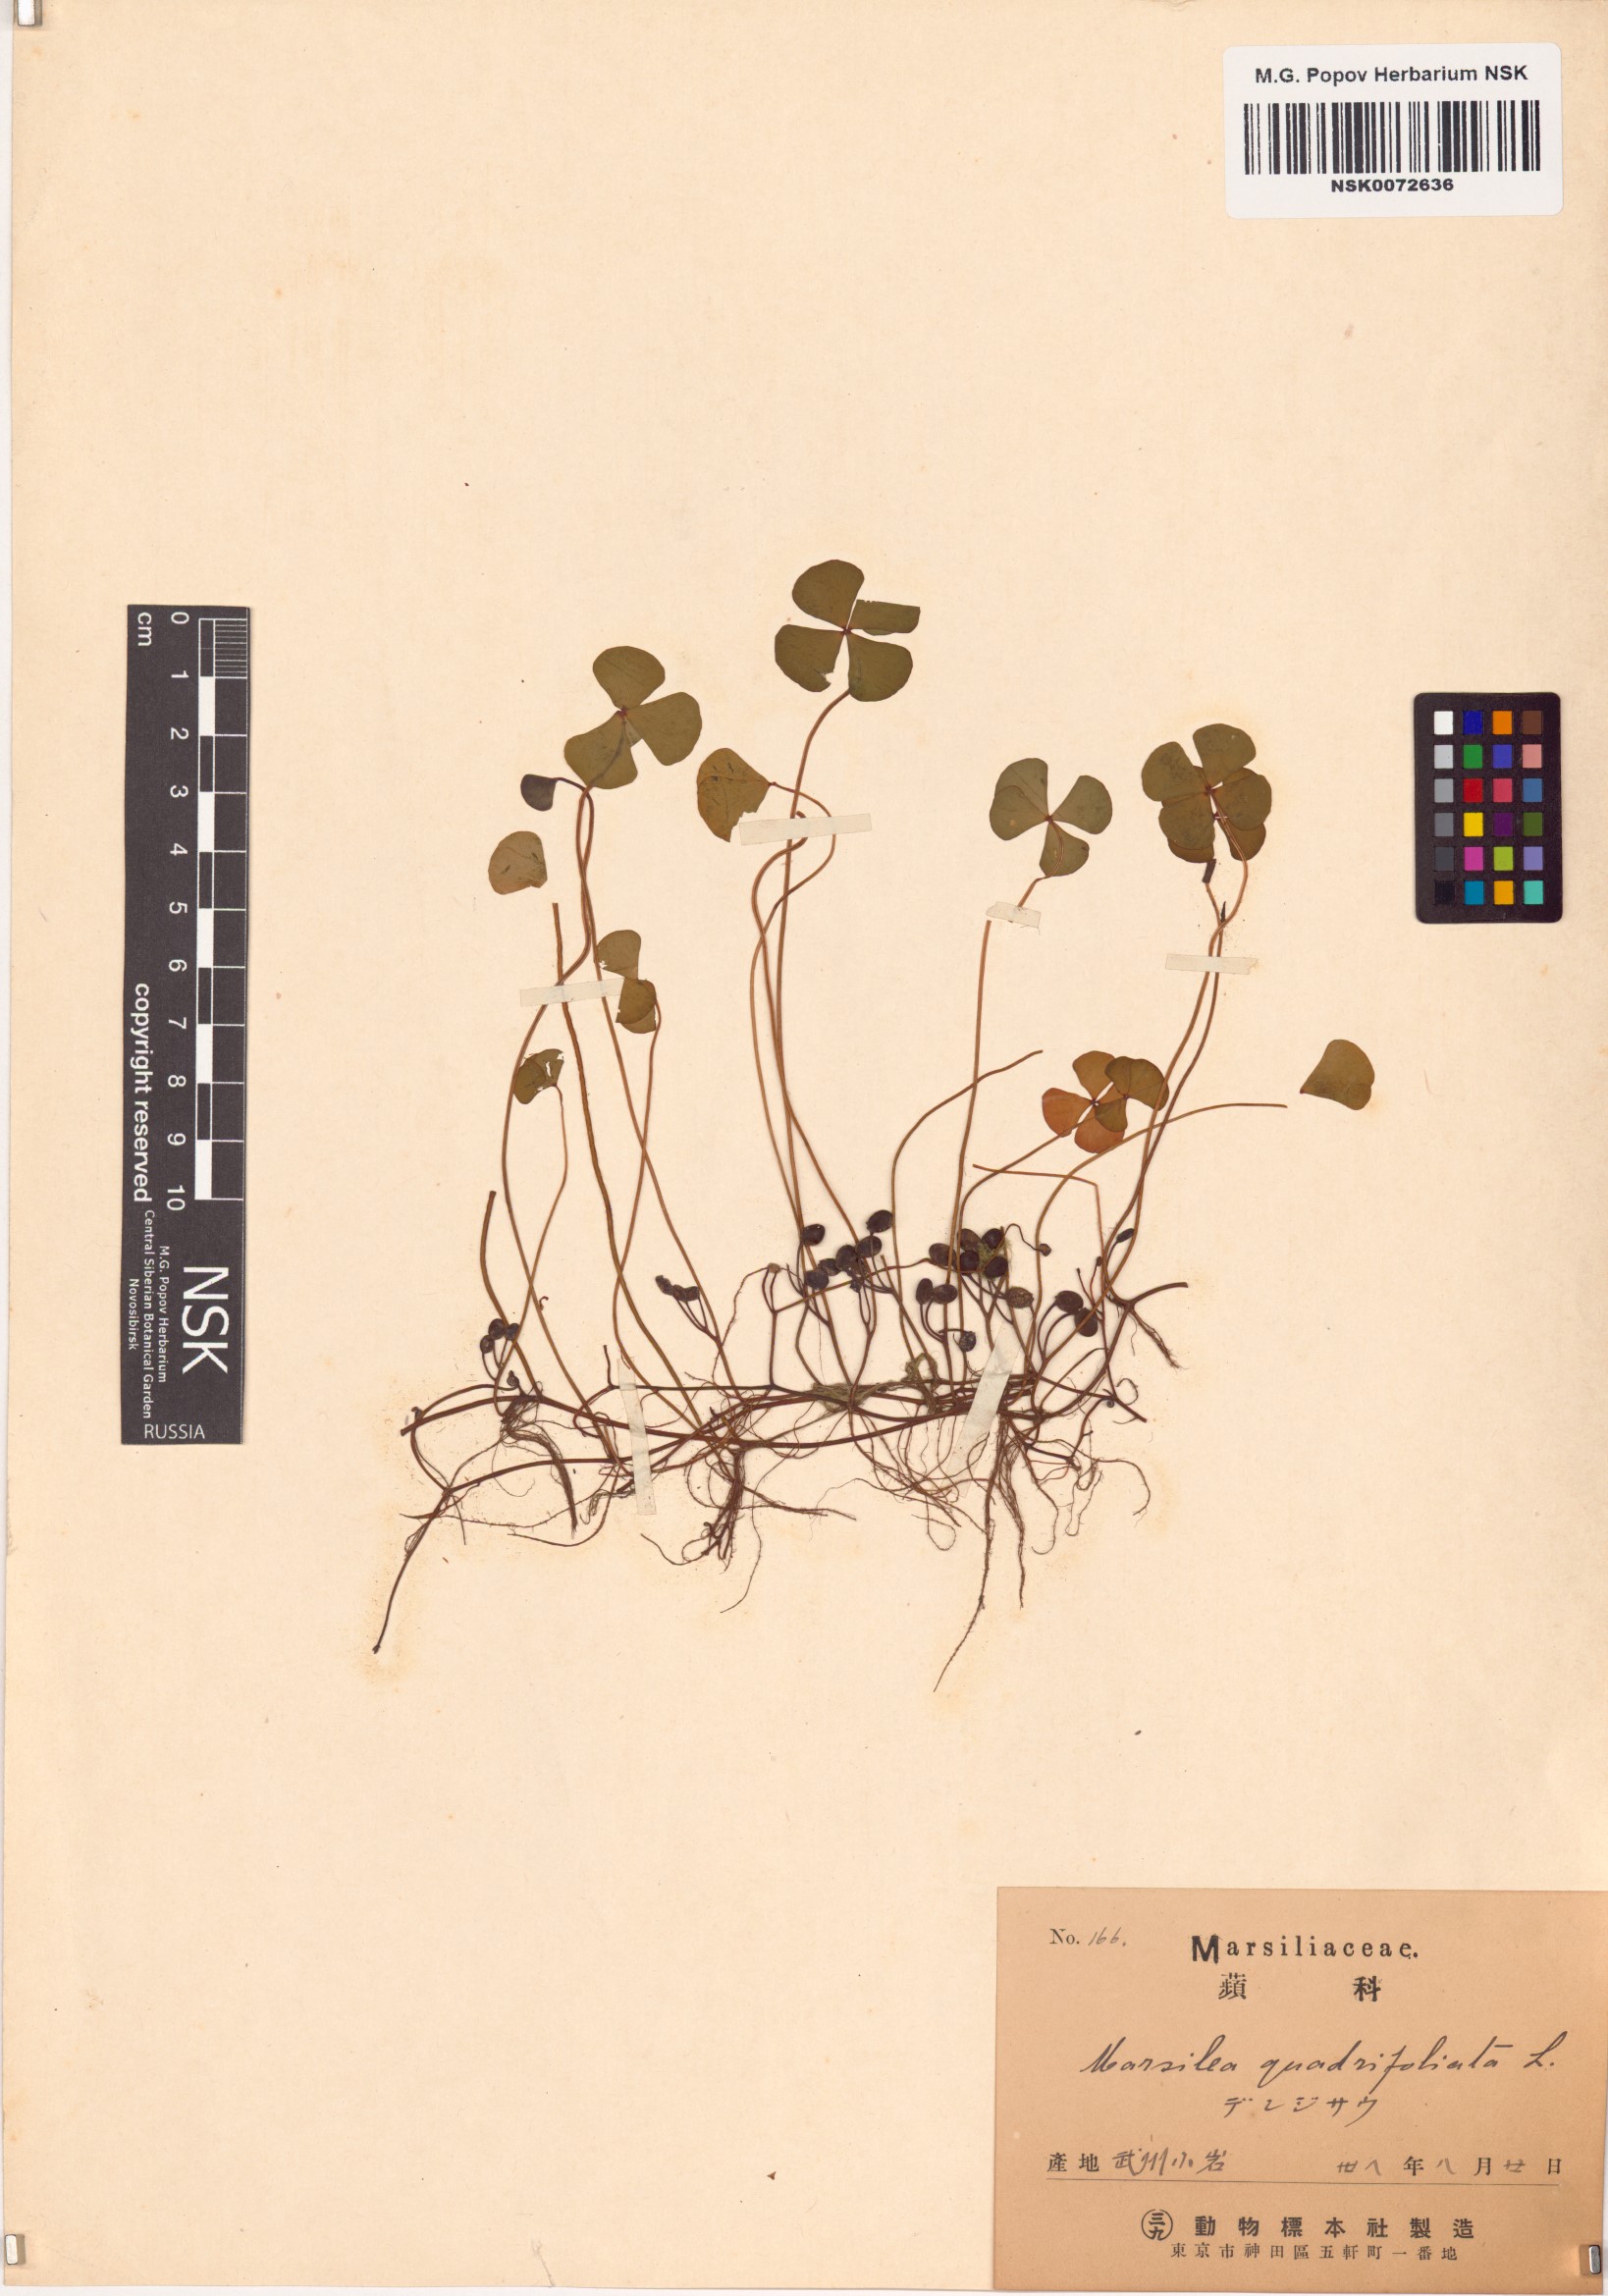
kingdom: Plantae
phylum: Tracheophyta
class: Polypodiopsida
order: Salviniales
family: Marsileaceae
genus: Marsilea
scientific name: Marsilea quadrifolia
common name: Water shamrock
